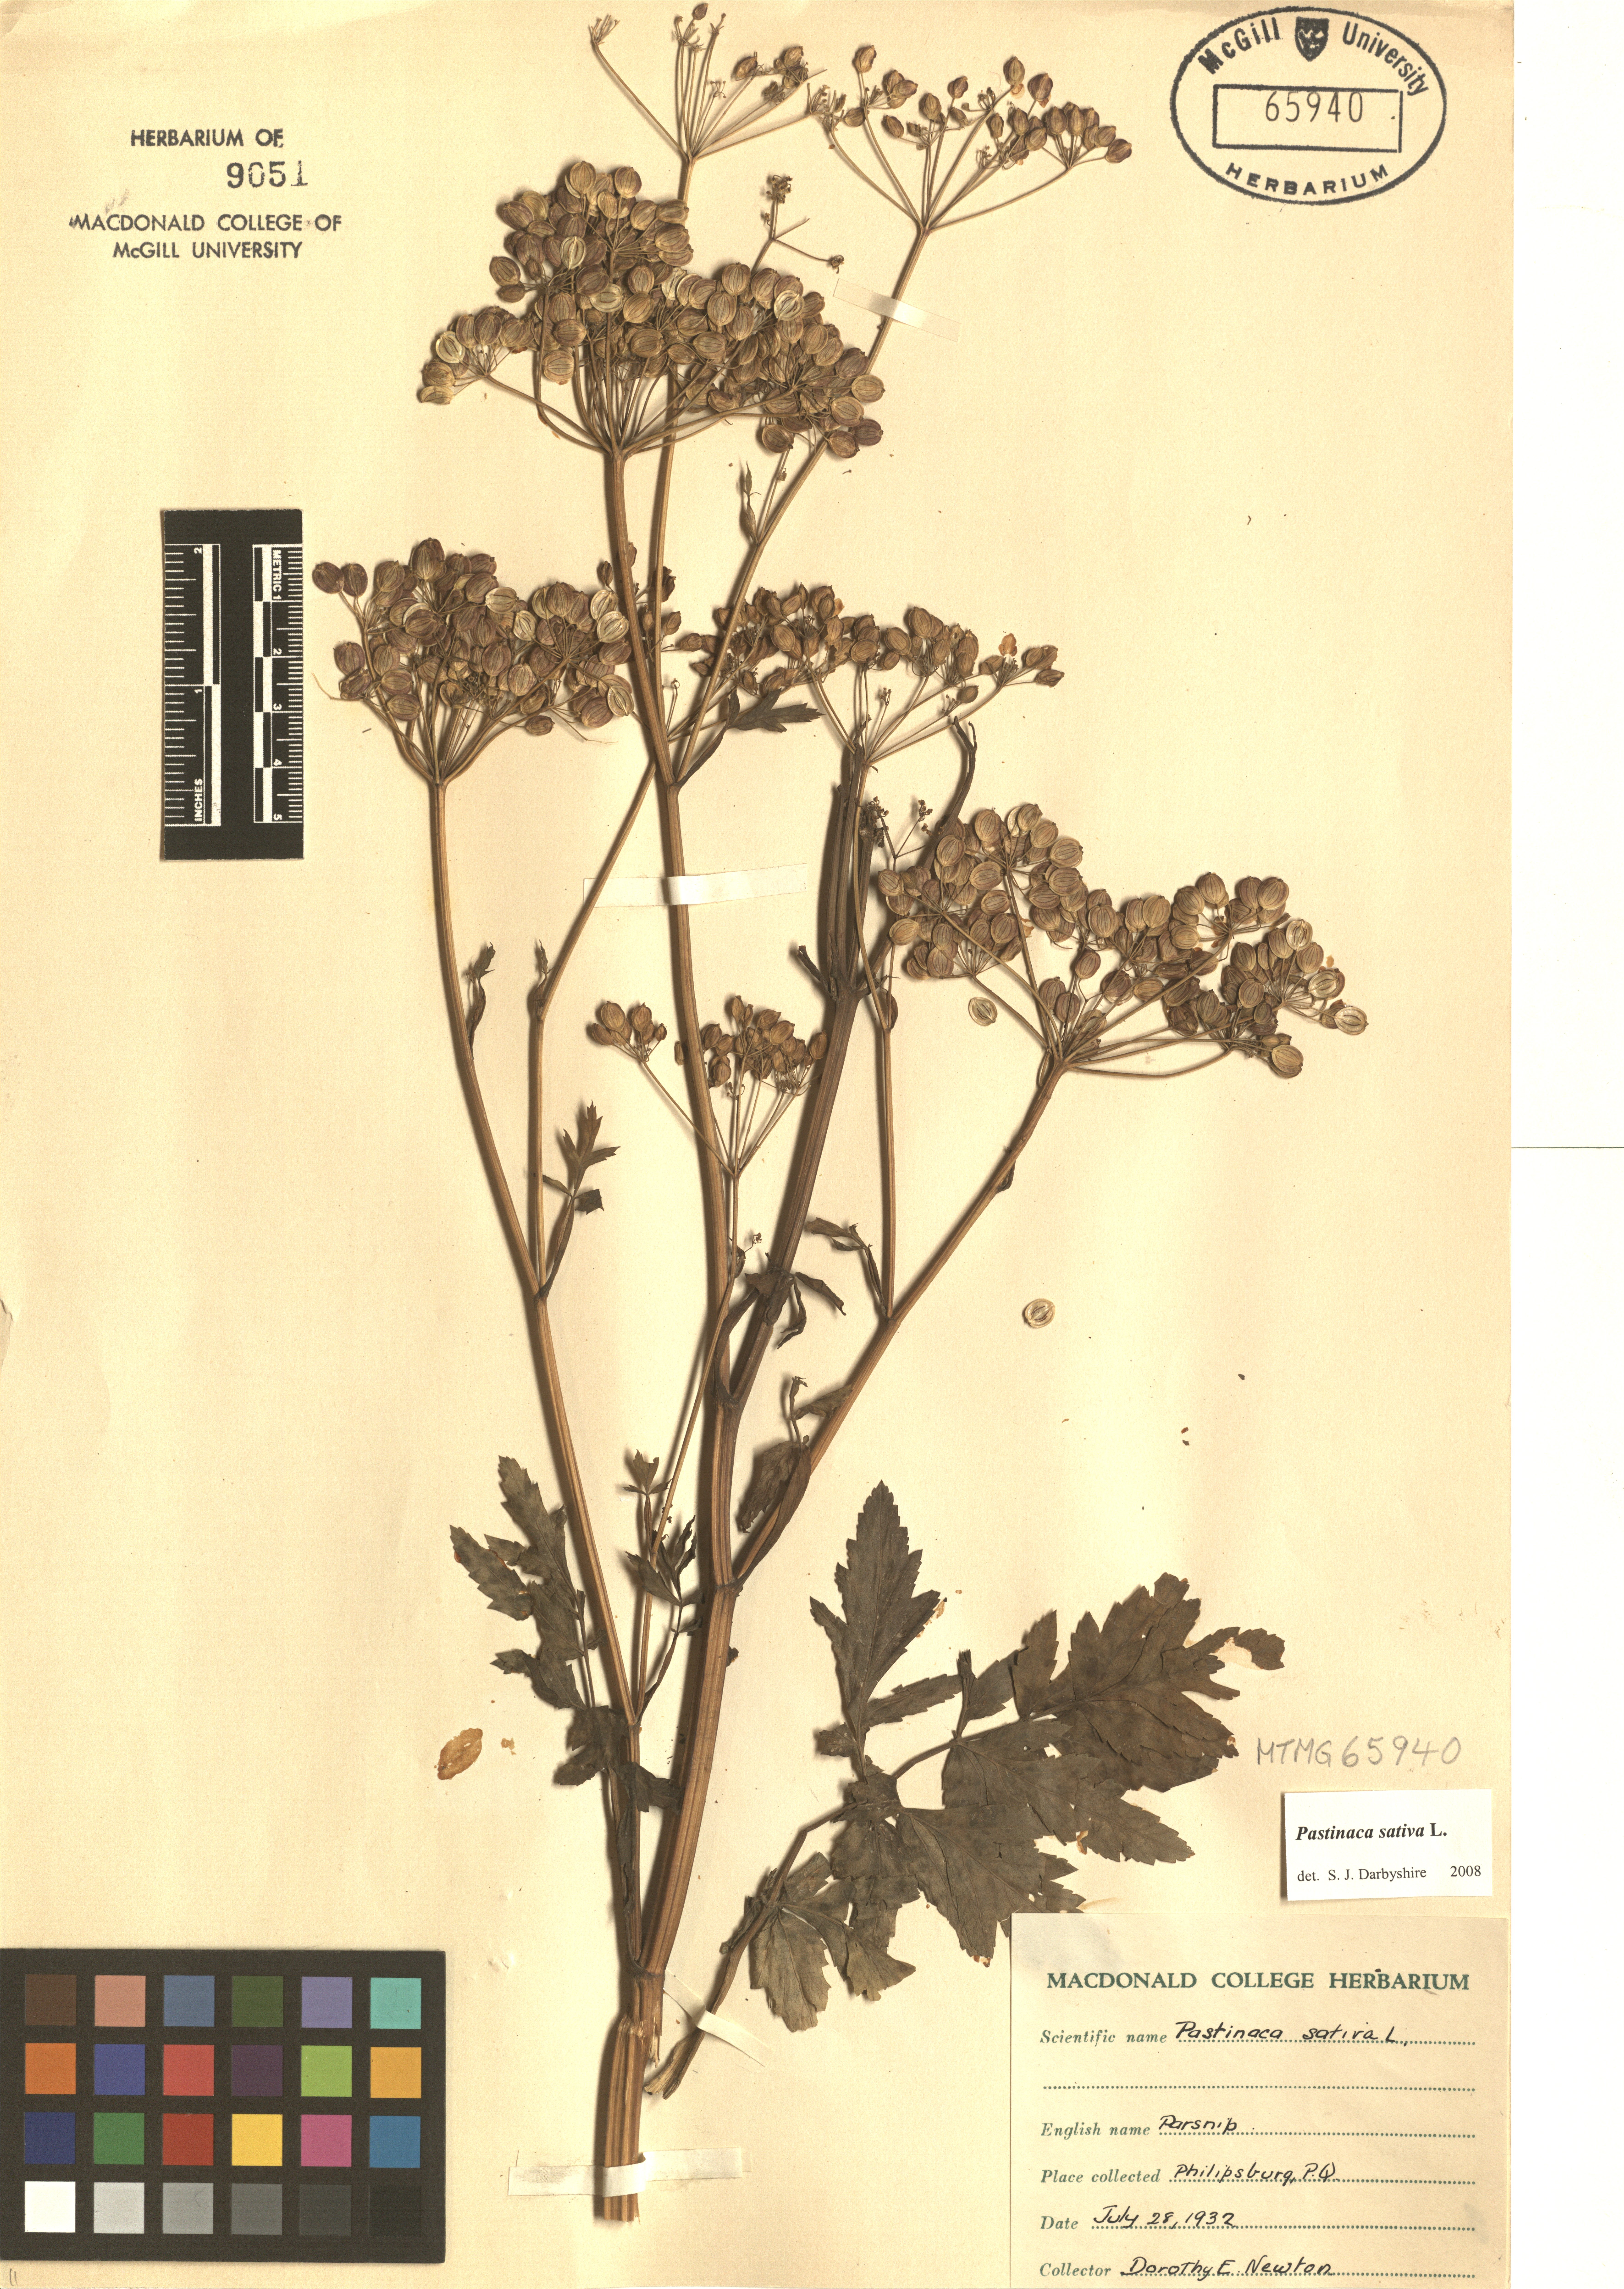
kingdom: Plantae
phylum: Tracheophyta
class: Magnoliopsida
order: Apiales
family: Apiaceae
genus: Pastinaca
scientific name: Pastinaca sativa
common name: Wild parsnip
